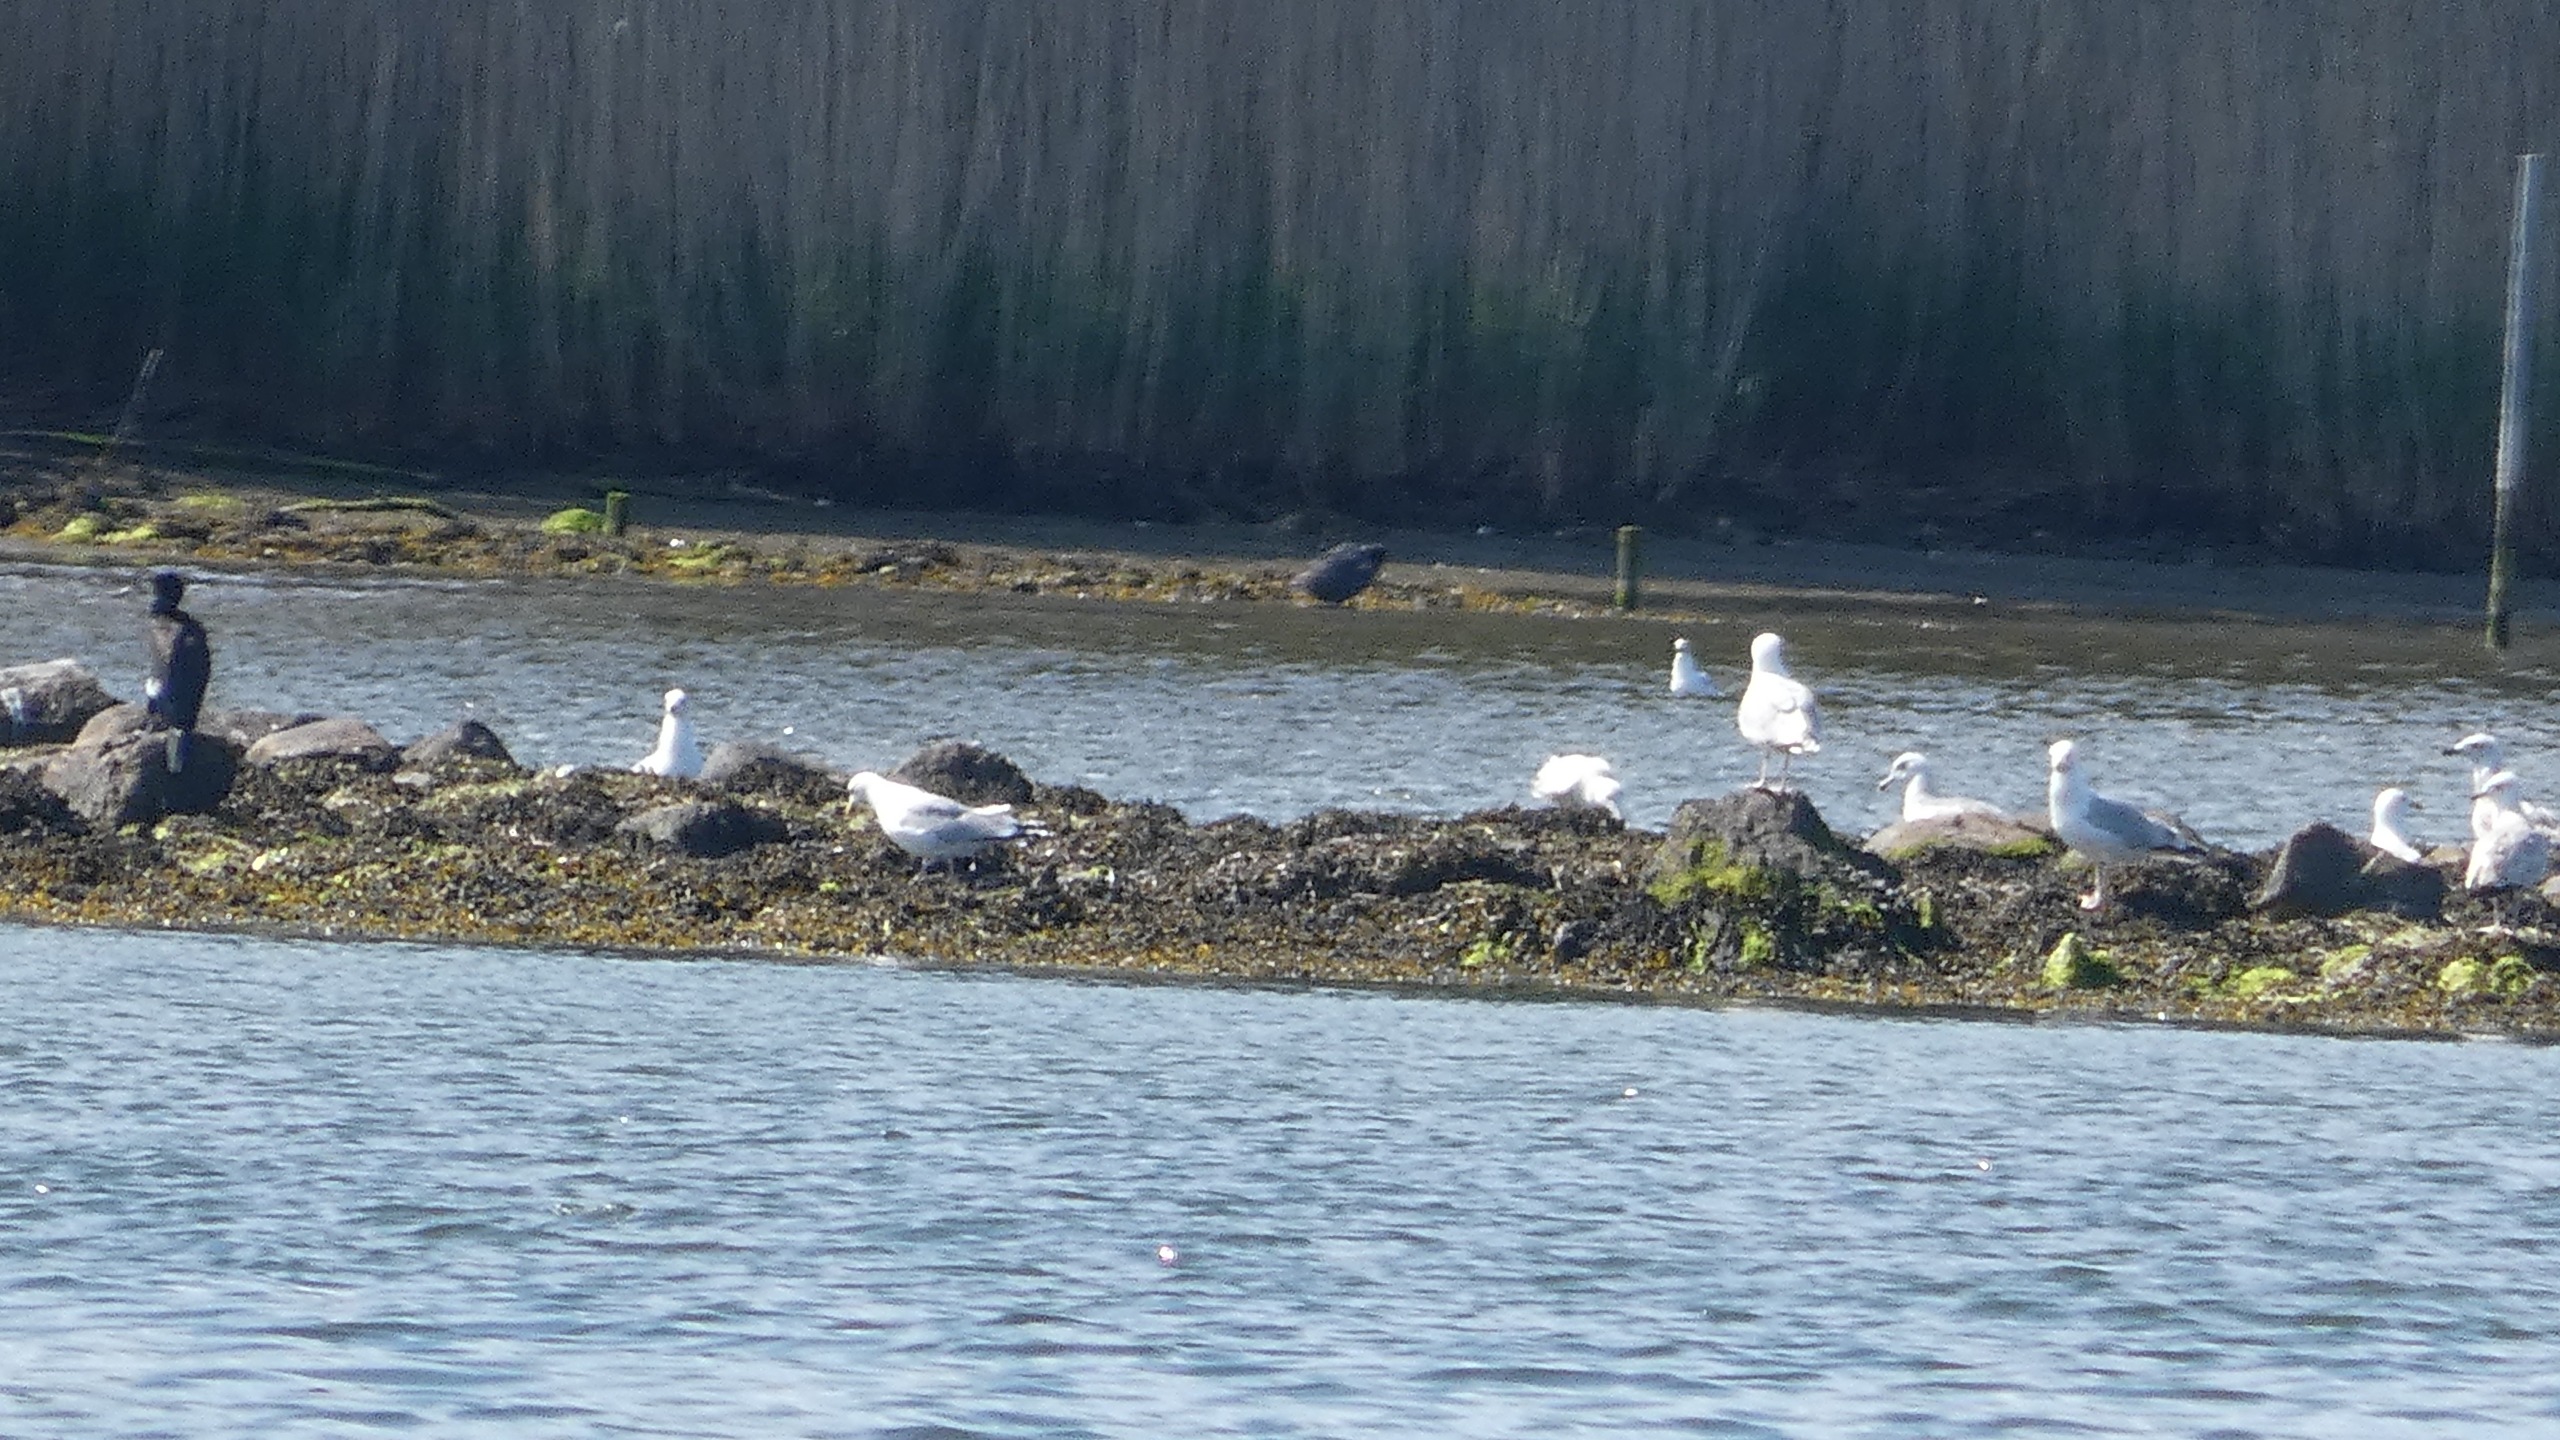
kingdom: Animalia
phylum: Chordata
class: Aves
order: Charadriiformes
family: Laridae
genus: Larus
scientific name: Larus argentatus
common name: Sølvmåge
